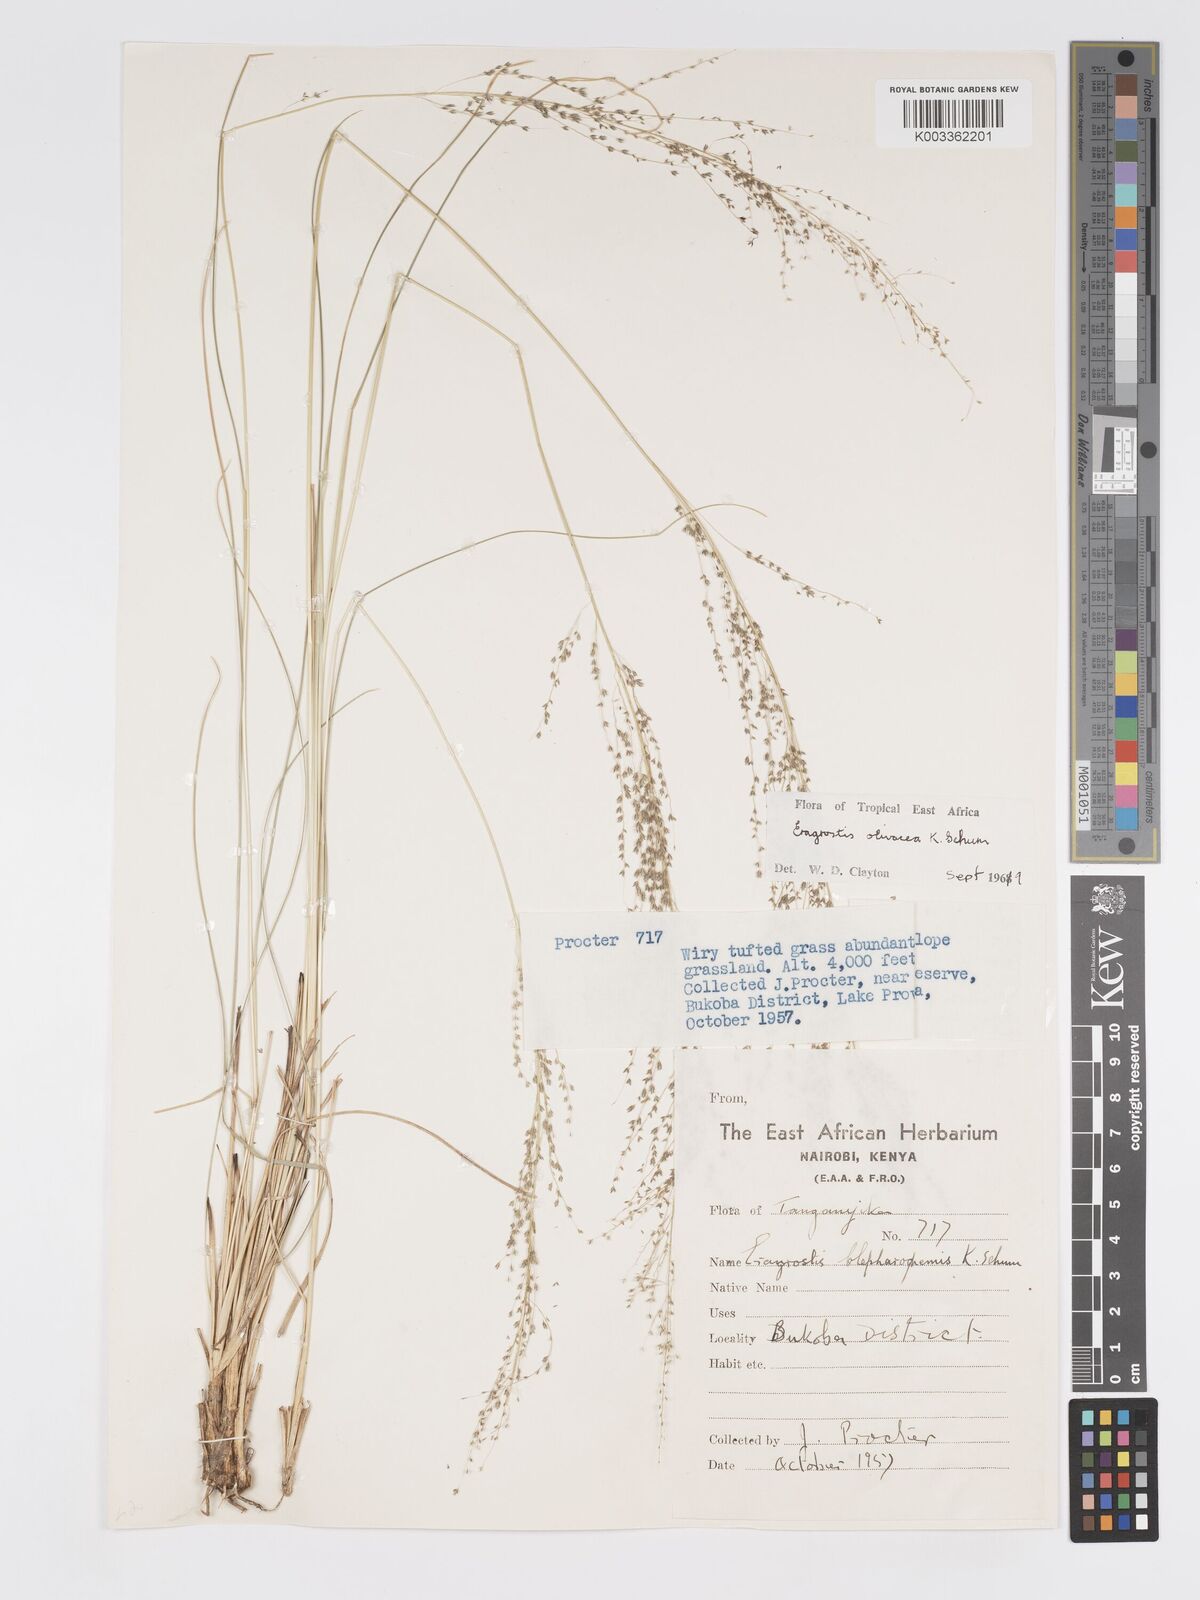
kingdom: Plantae
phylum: Tracheophyta
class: Liliopsida
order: Poales
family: Poaceae
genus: Eragrostis
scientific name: Eragrostis olivacea
